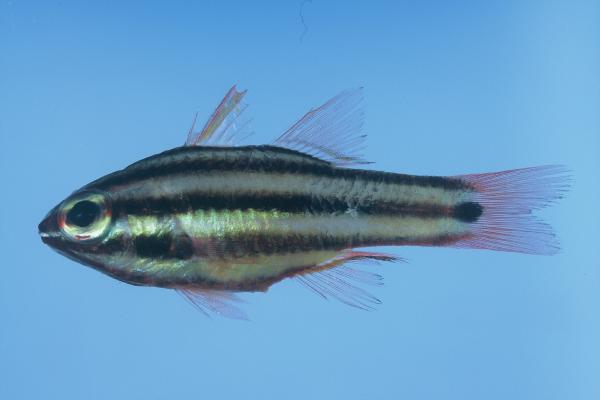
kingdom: Animalia
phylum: Chordata
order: Perciformes
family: Apogonidae
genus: Ostorhinchus
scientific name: Ostorhinchus angustatus
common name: Narrow-striped cardinalfish
